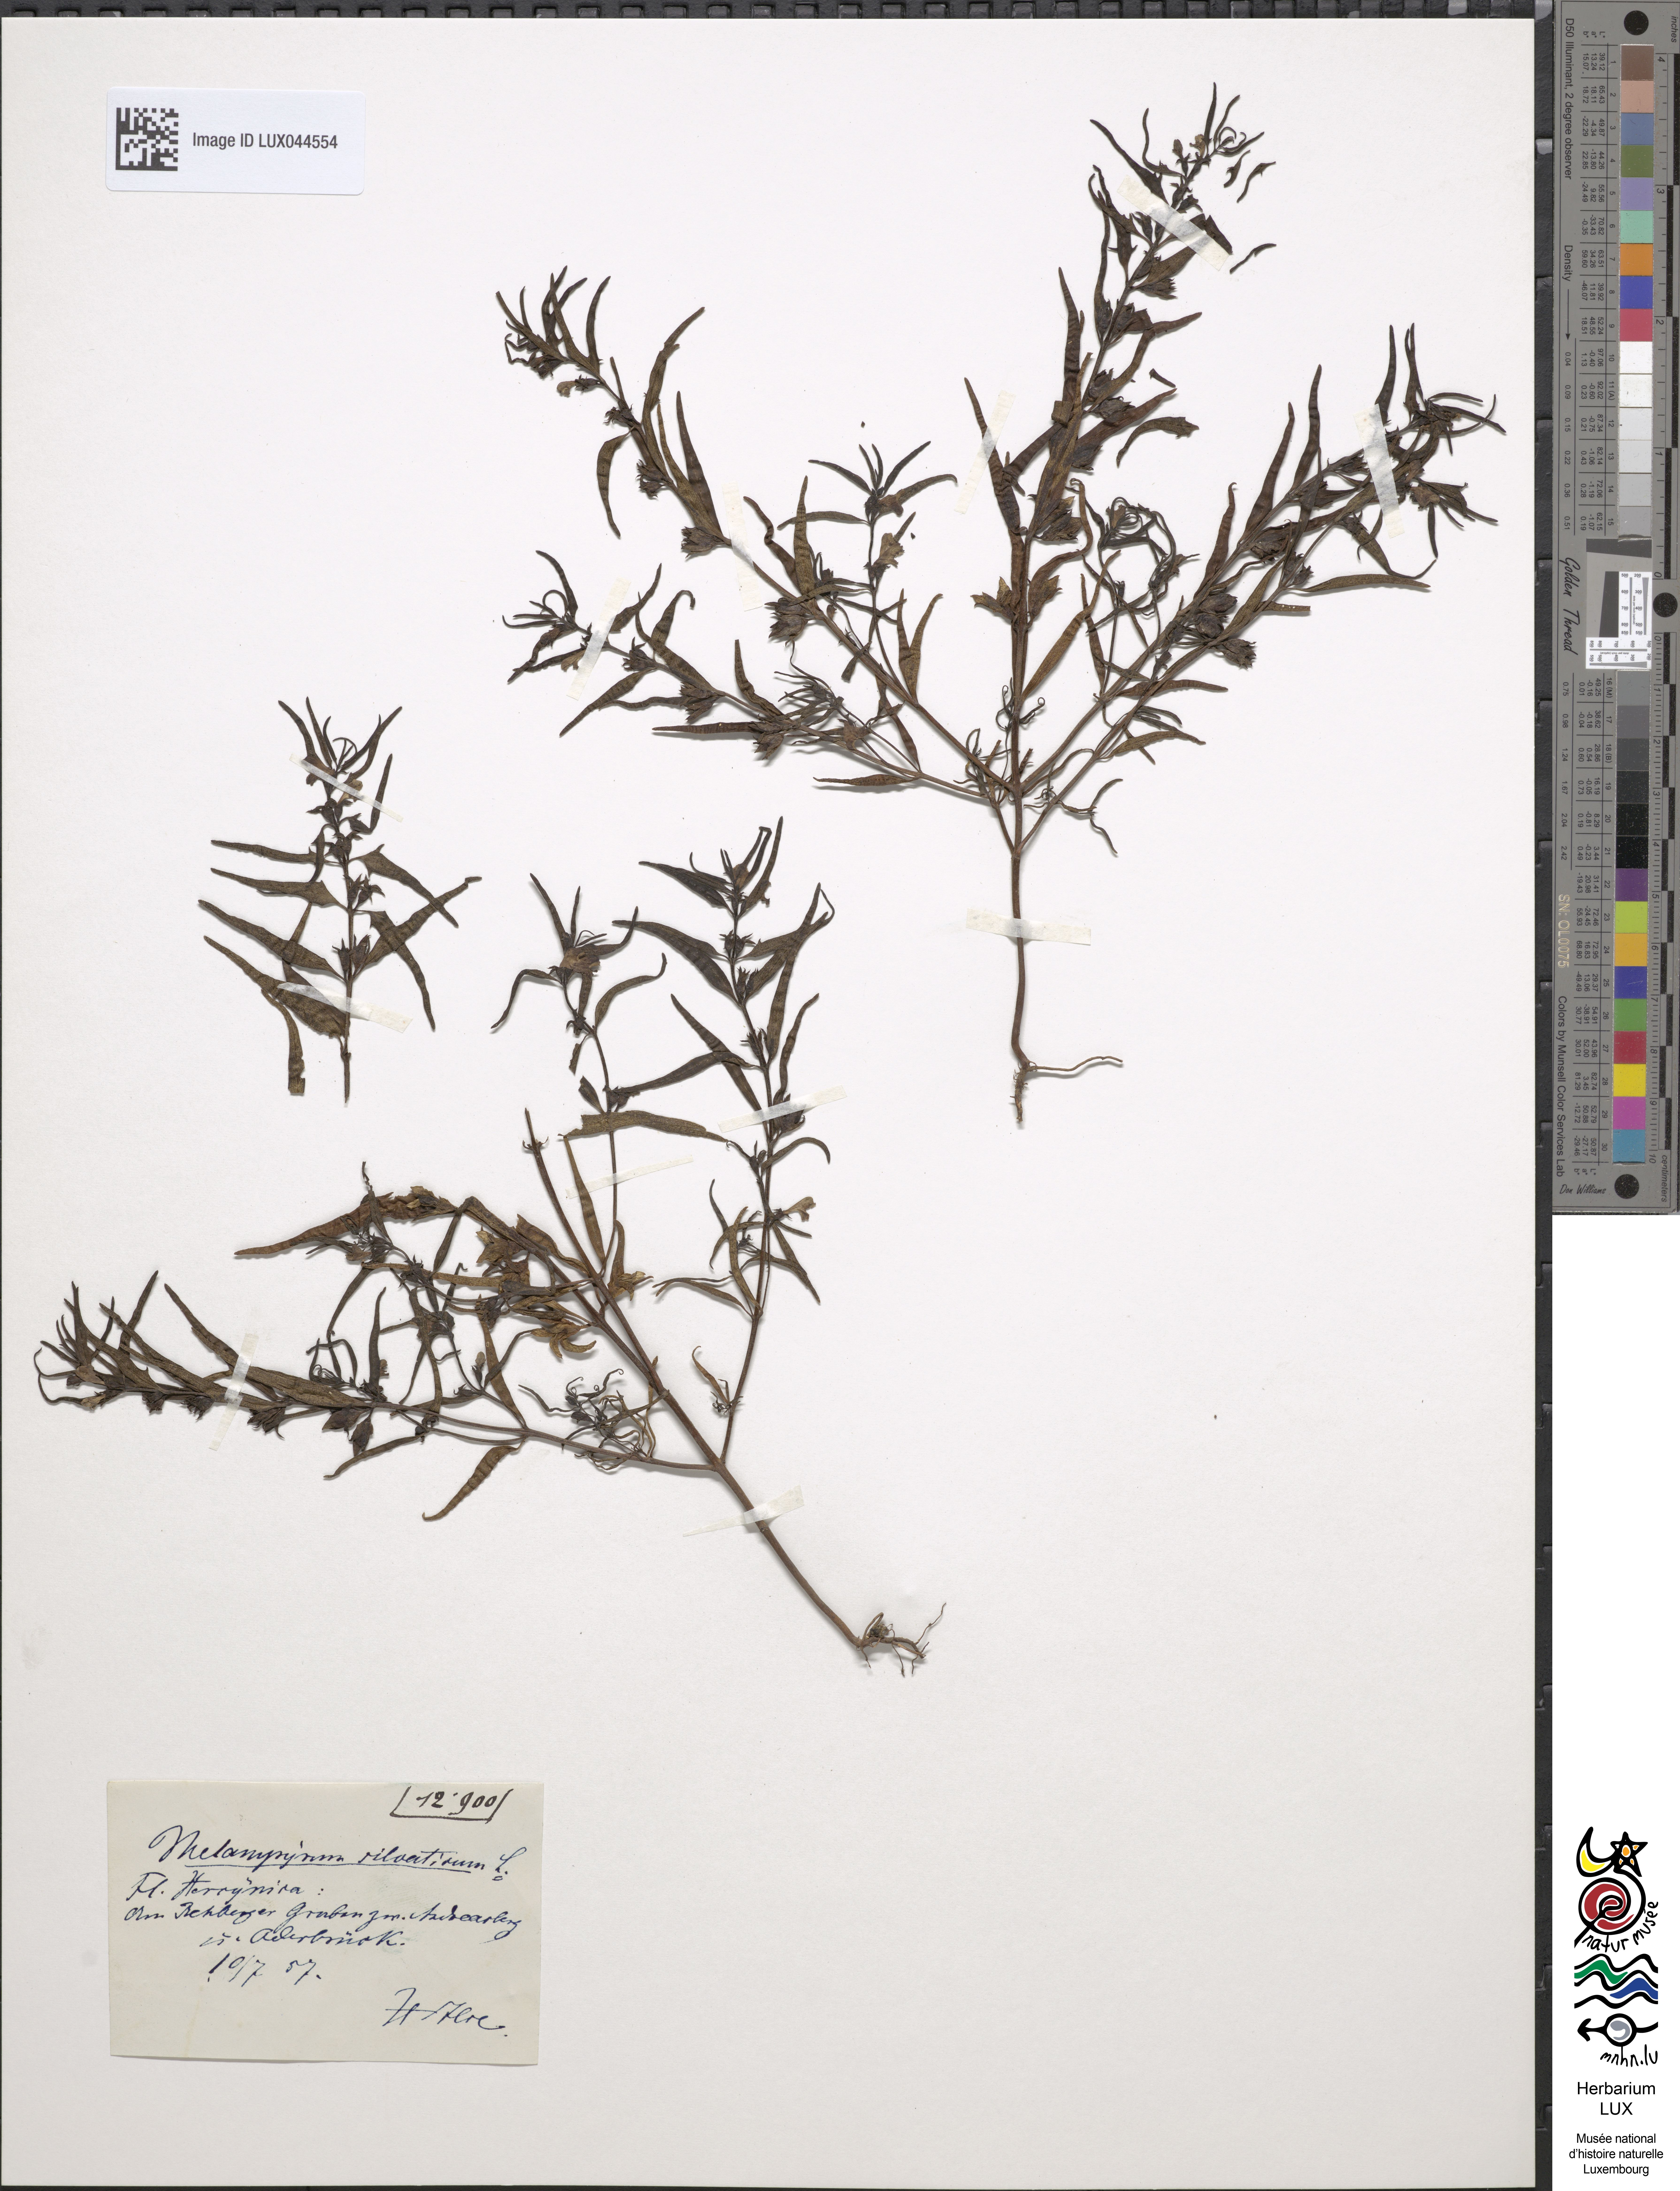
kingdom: Plantae
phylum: Tracheophyta
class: Magnoliopsida
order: Lamiales
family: Orobanchaceae
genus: Melampyrum
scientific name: Melampyrum sylvaticum
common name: Small cow-wheat
